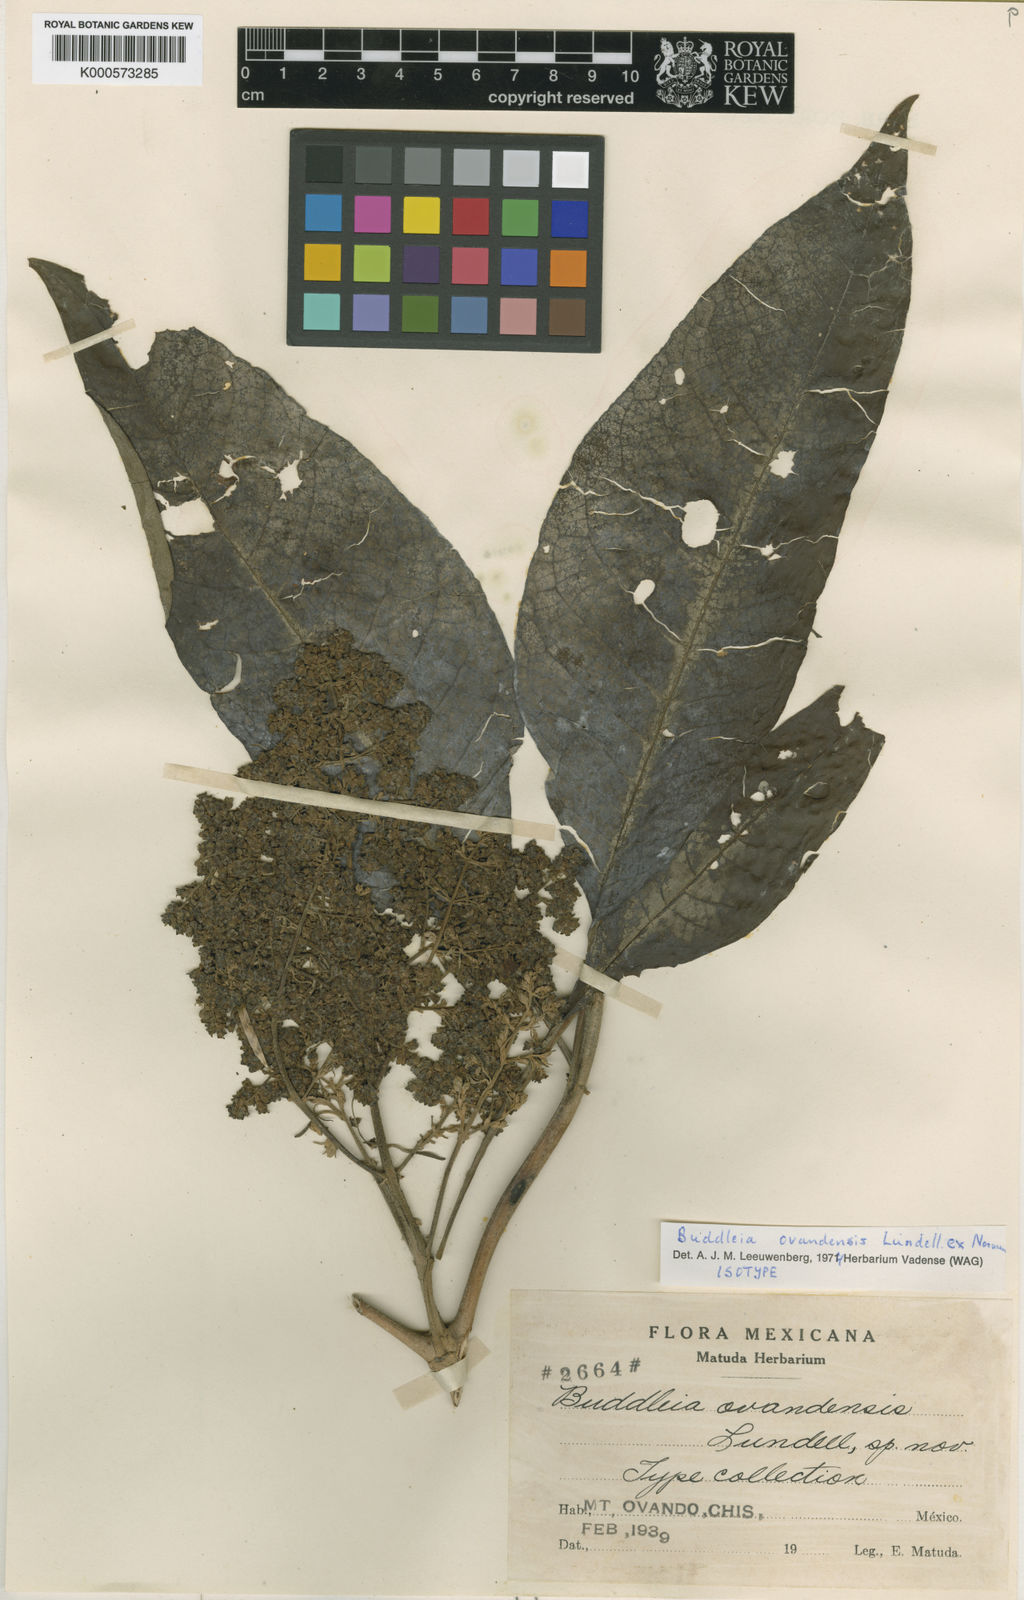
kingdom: Plantae
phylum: Tracheophyta
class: Magnoliopsida
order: Lamiales
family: Scrophulariaceae
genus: Buddleja
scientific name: Buddleja cordata
